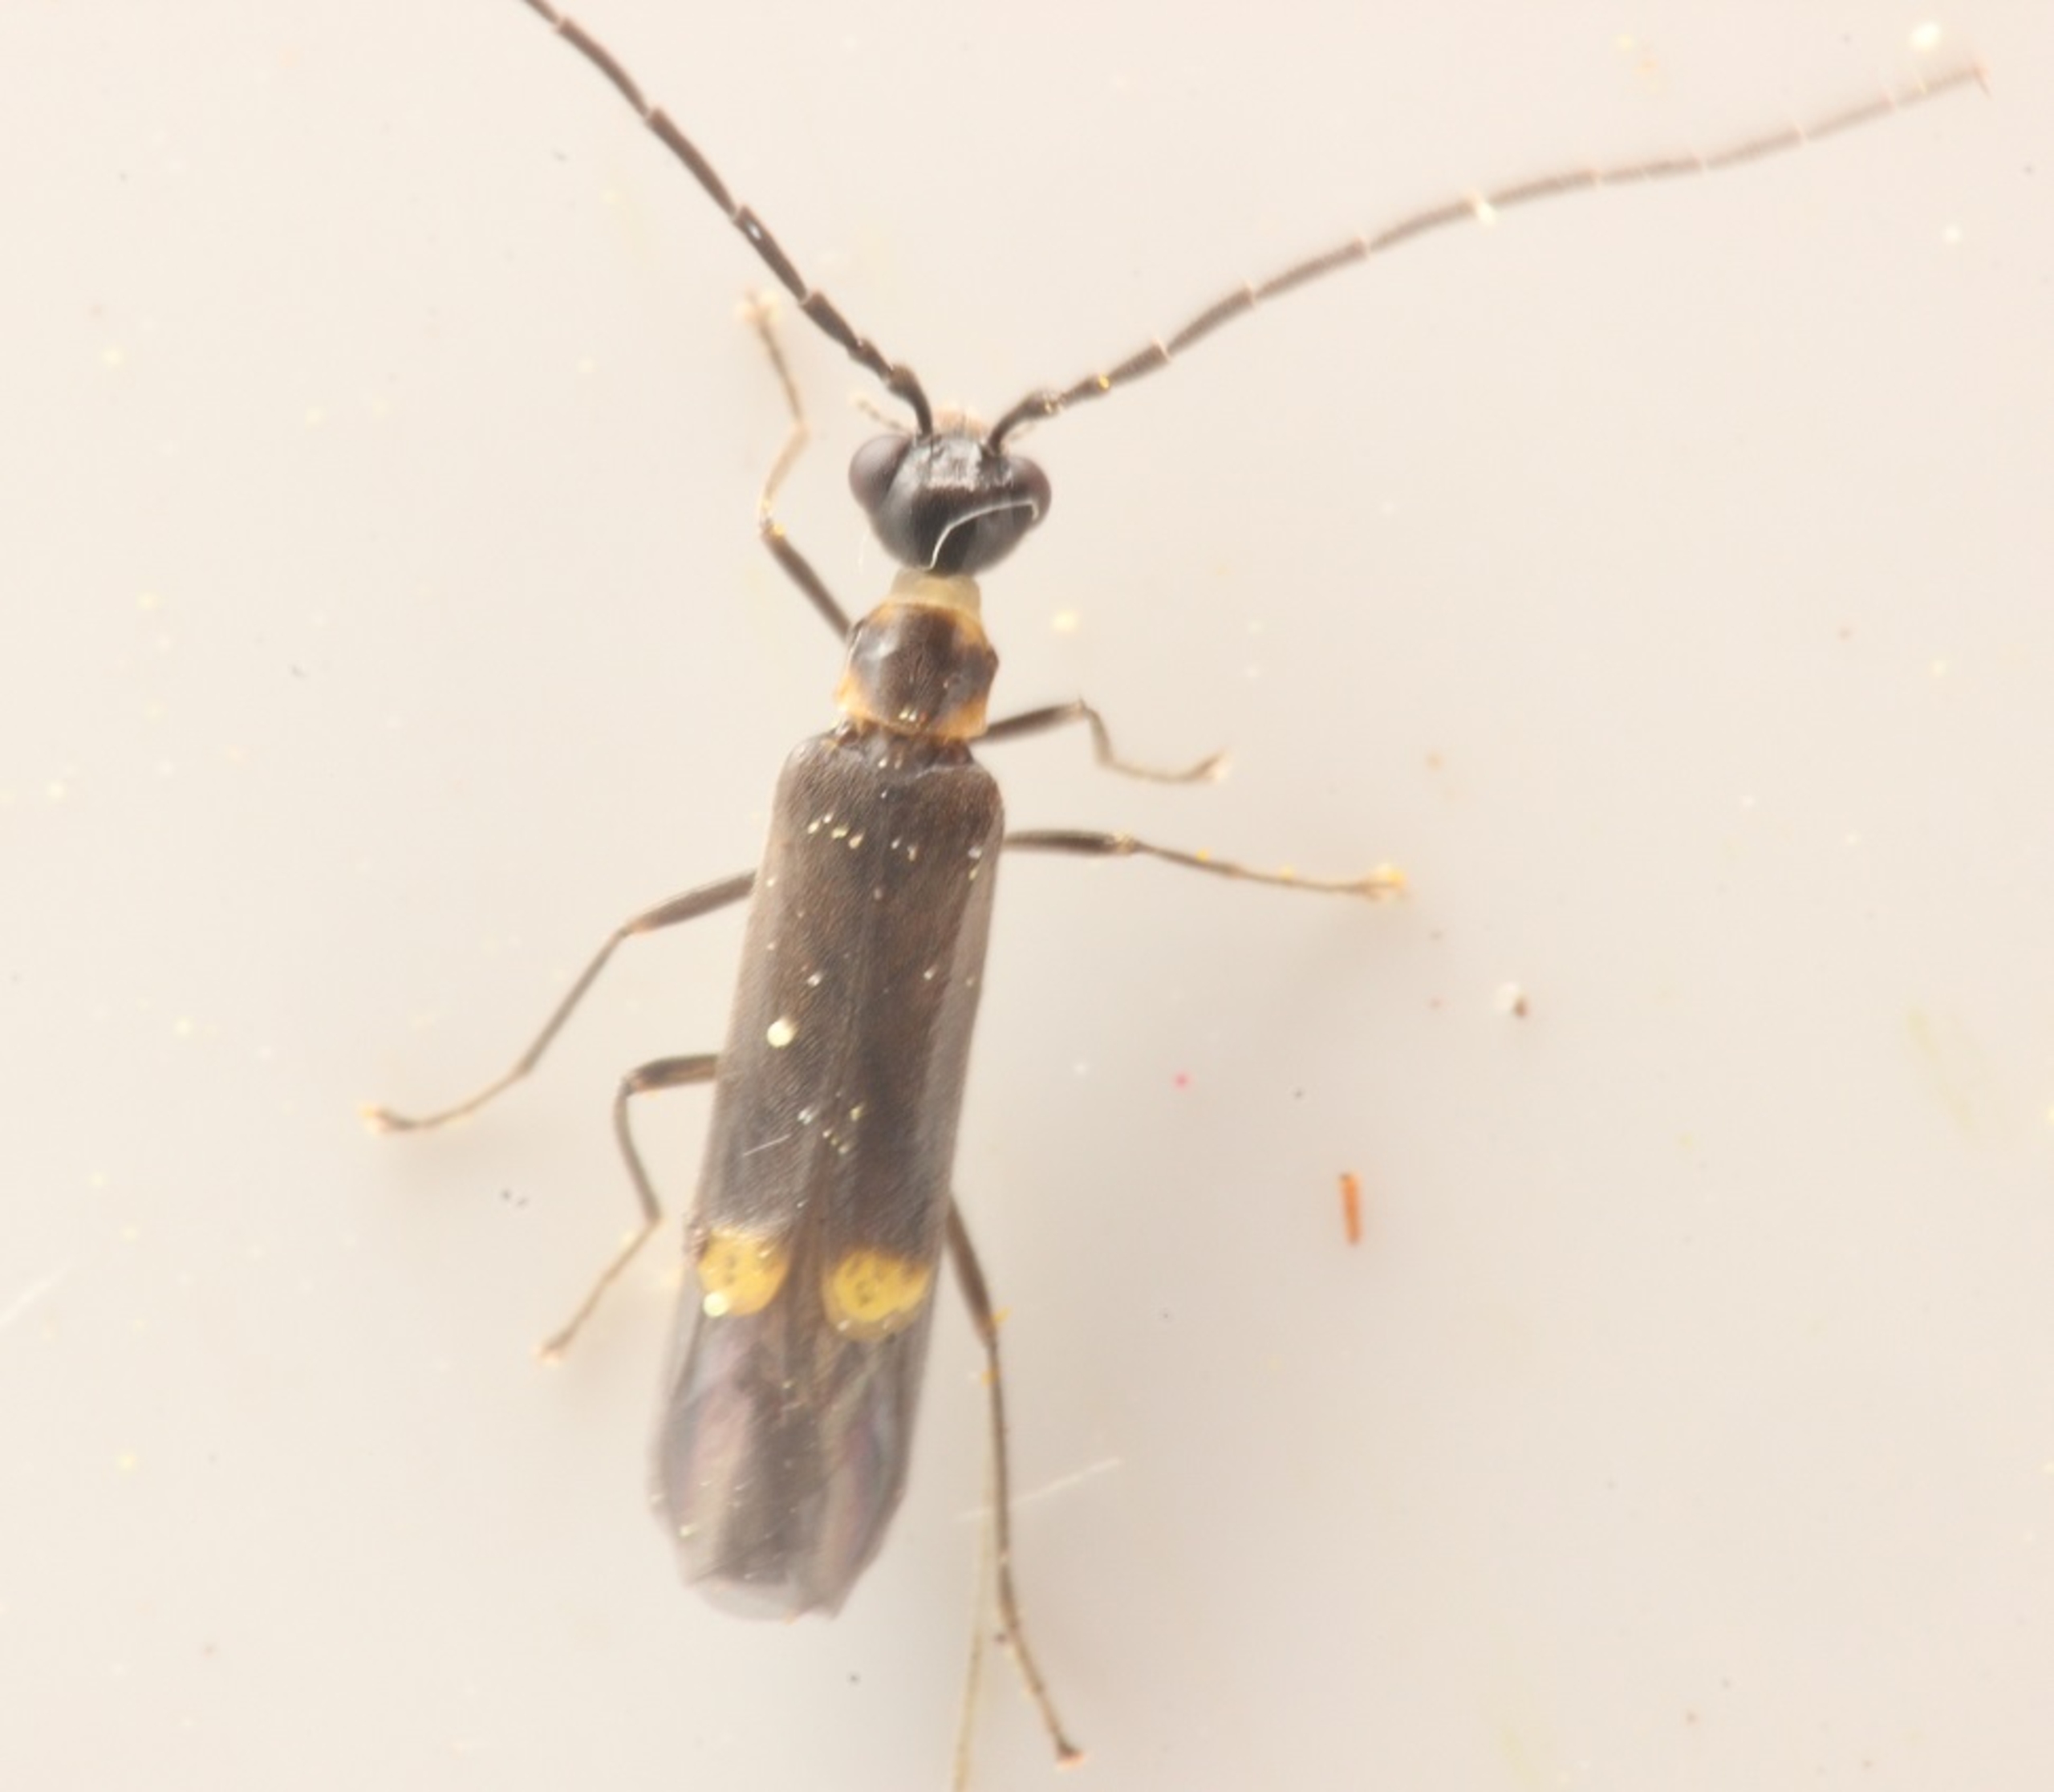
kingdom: Animalia
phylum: Arthropoda
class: Insecta
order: Coleoptera
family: Cantharidae
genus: Malthodes
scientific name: Malthodes marginatus
